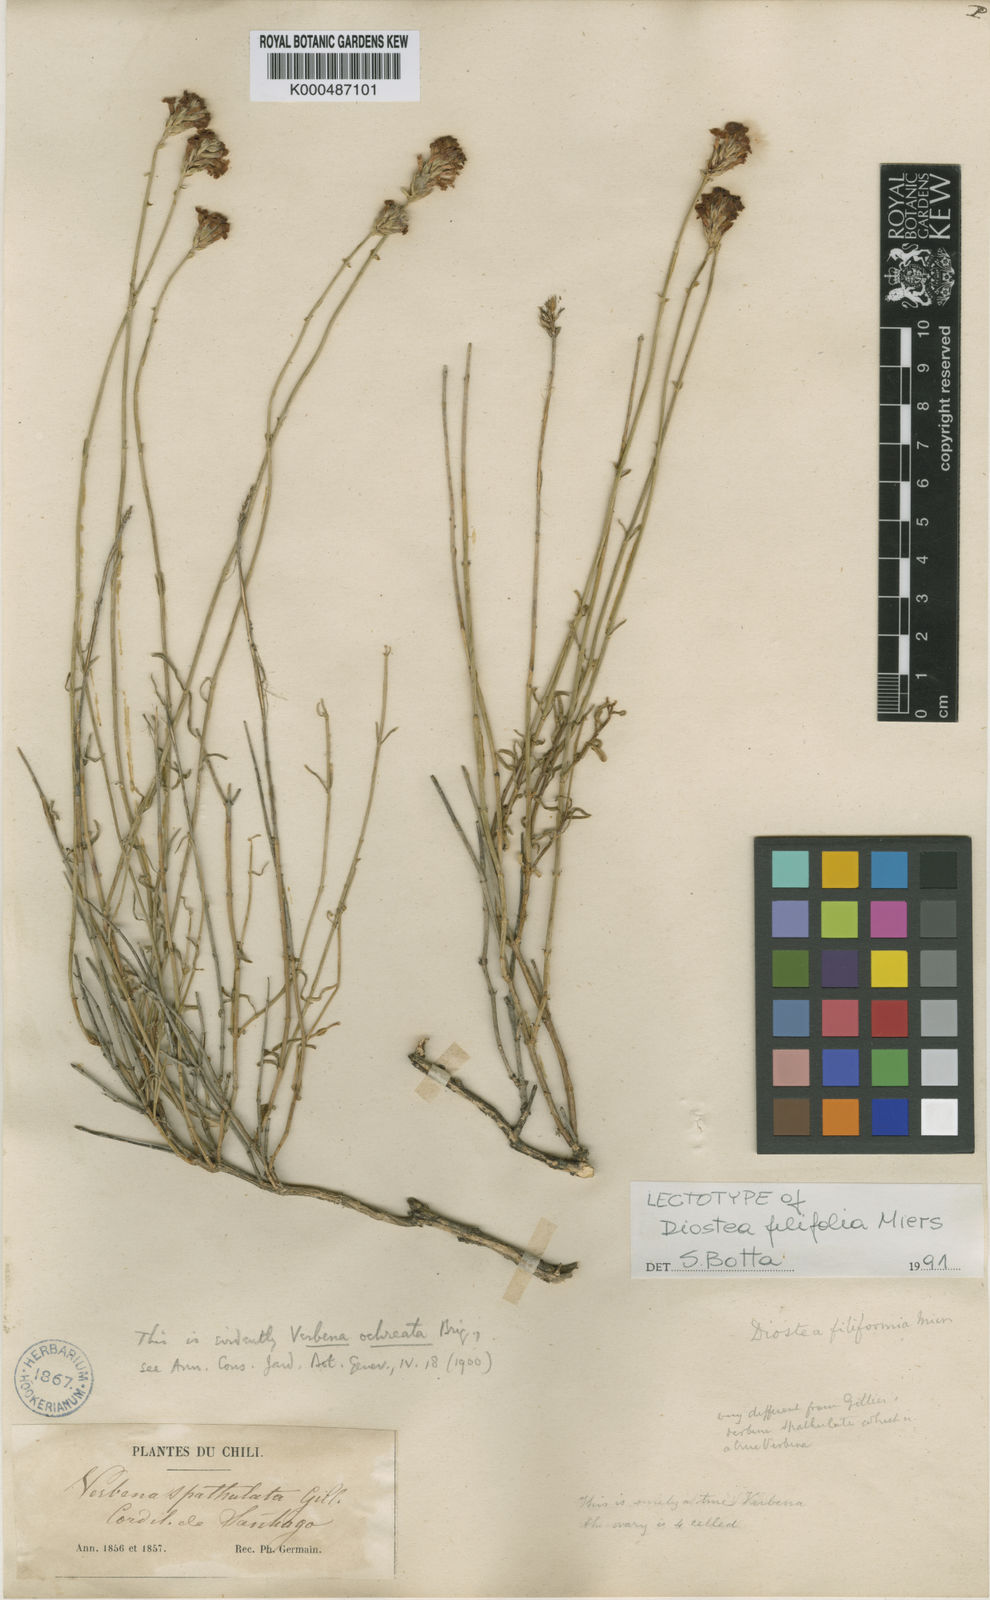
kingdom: Plantae
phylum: Tracheophyta
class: Magnoliopsida
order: Lamiales
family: Verbenaceae
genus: Junellia
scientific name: Junellia spathulata
